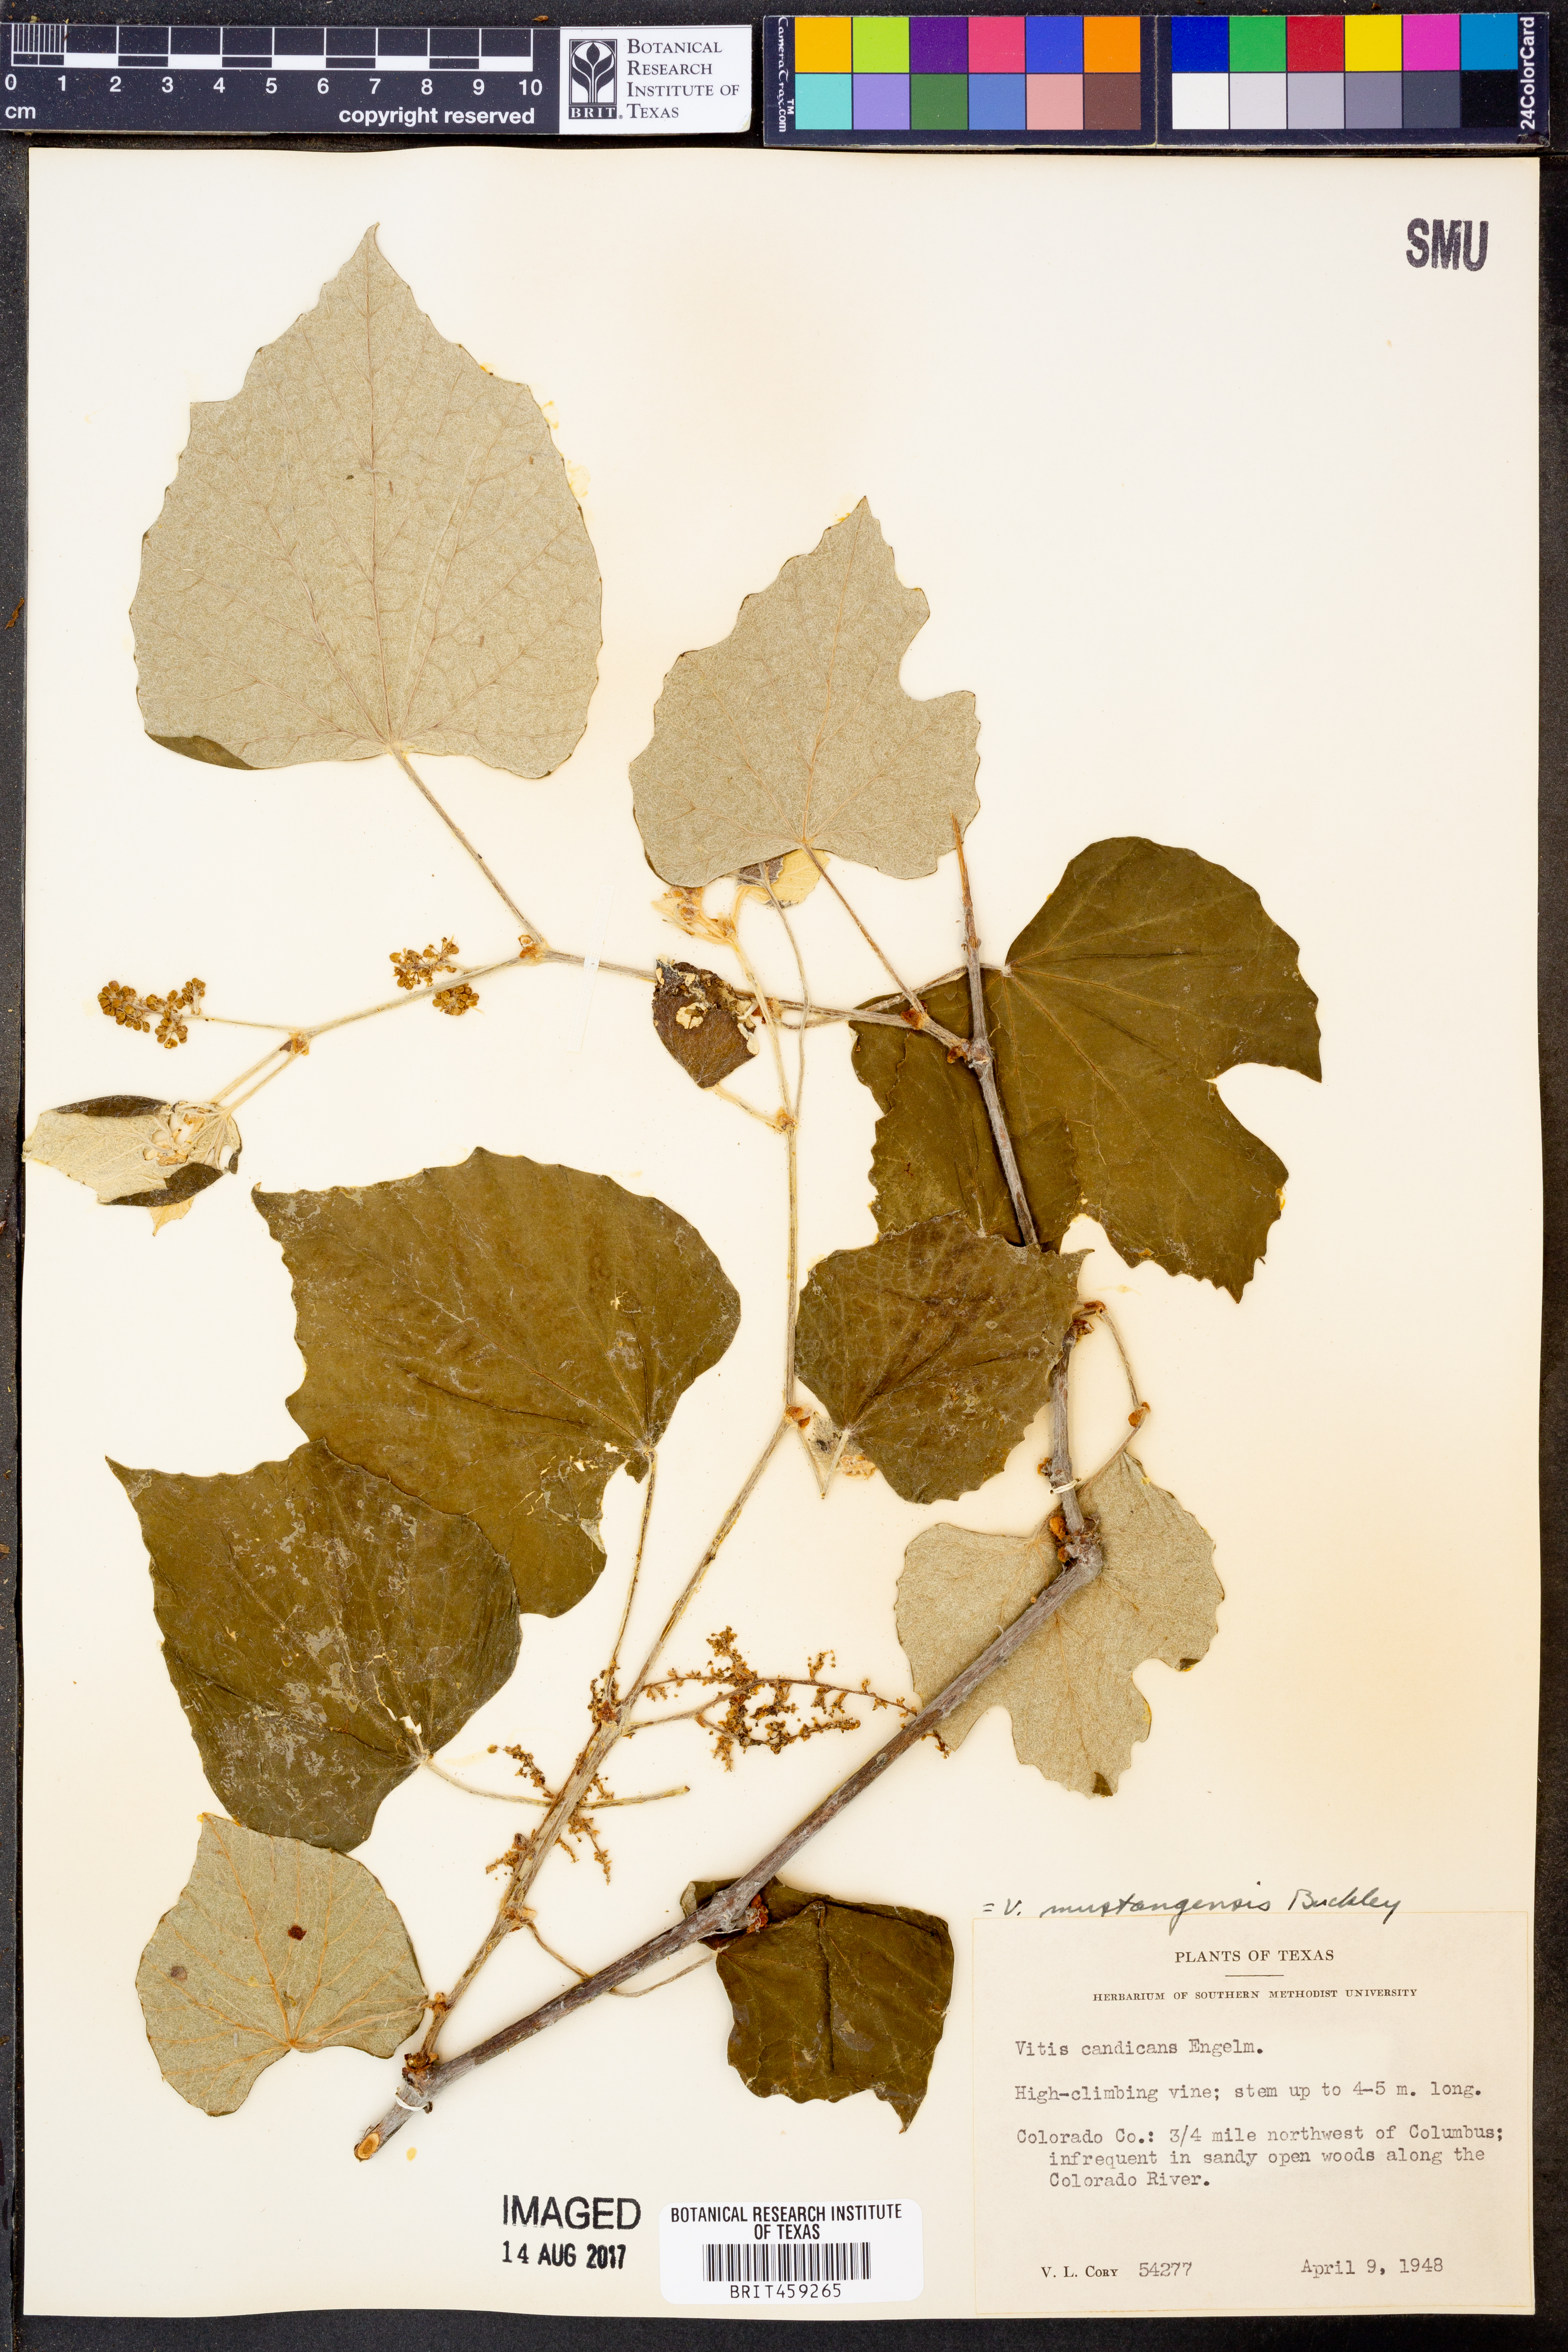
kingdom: Plantae
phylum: Tracheophyta
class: Magnoliopsida
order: Vitales
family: Vitaceae
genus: Vitis
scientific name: Vitis mustangensis
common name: Mustang grape
